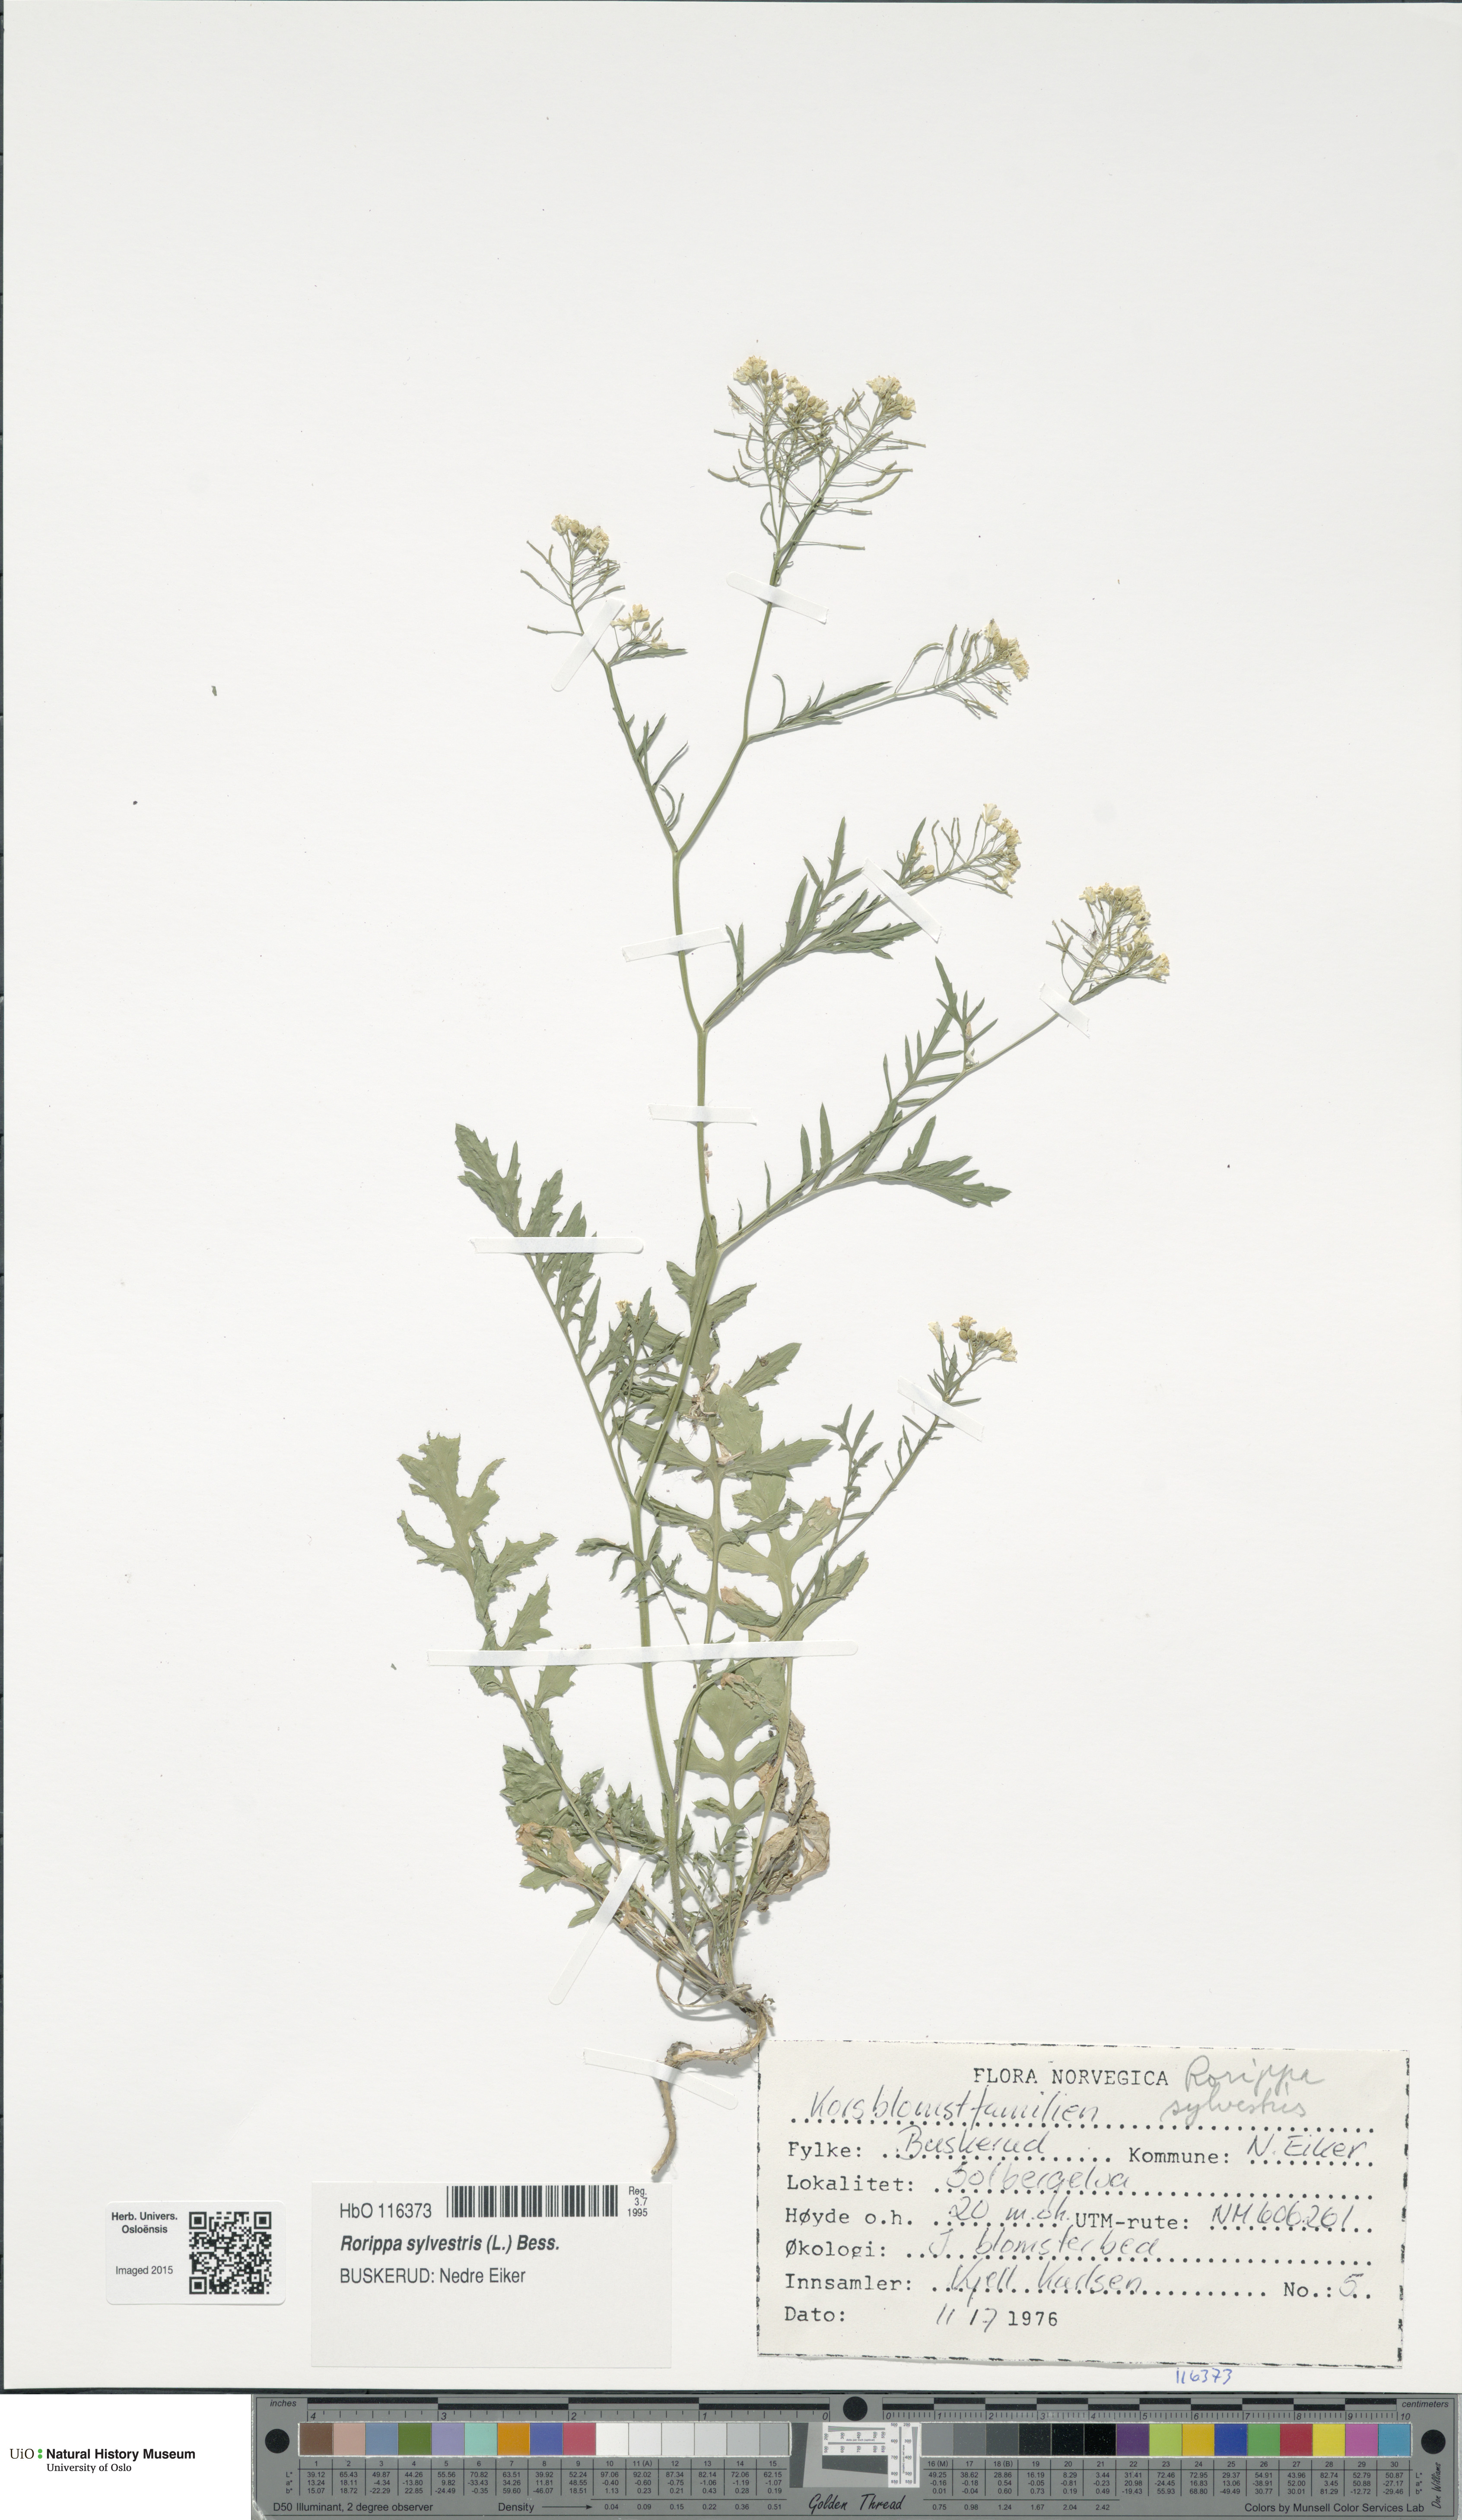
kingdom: Plantae
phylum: Tracheophyta
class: Magnoliopsida
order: Brassicales
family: Brassicaceae
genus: Rorippa
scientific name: Rorippa sylvestris
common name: Creeping yellowcress
